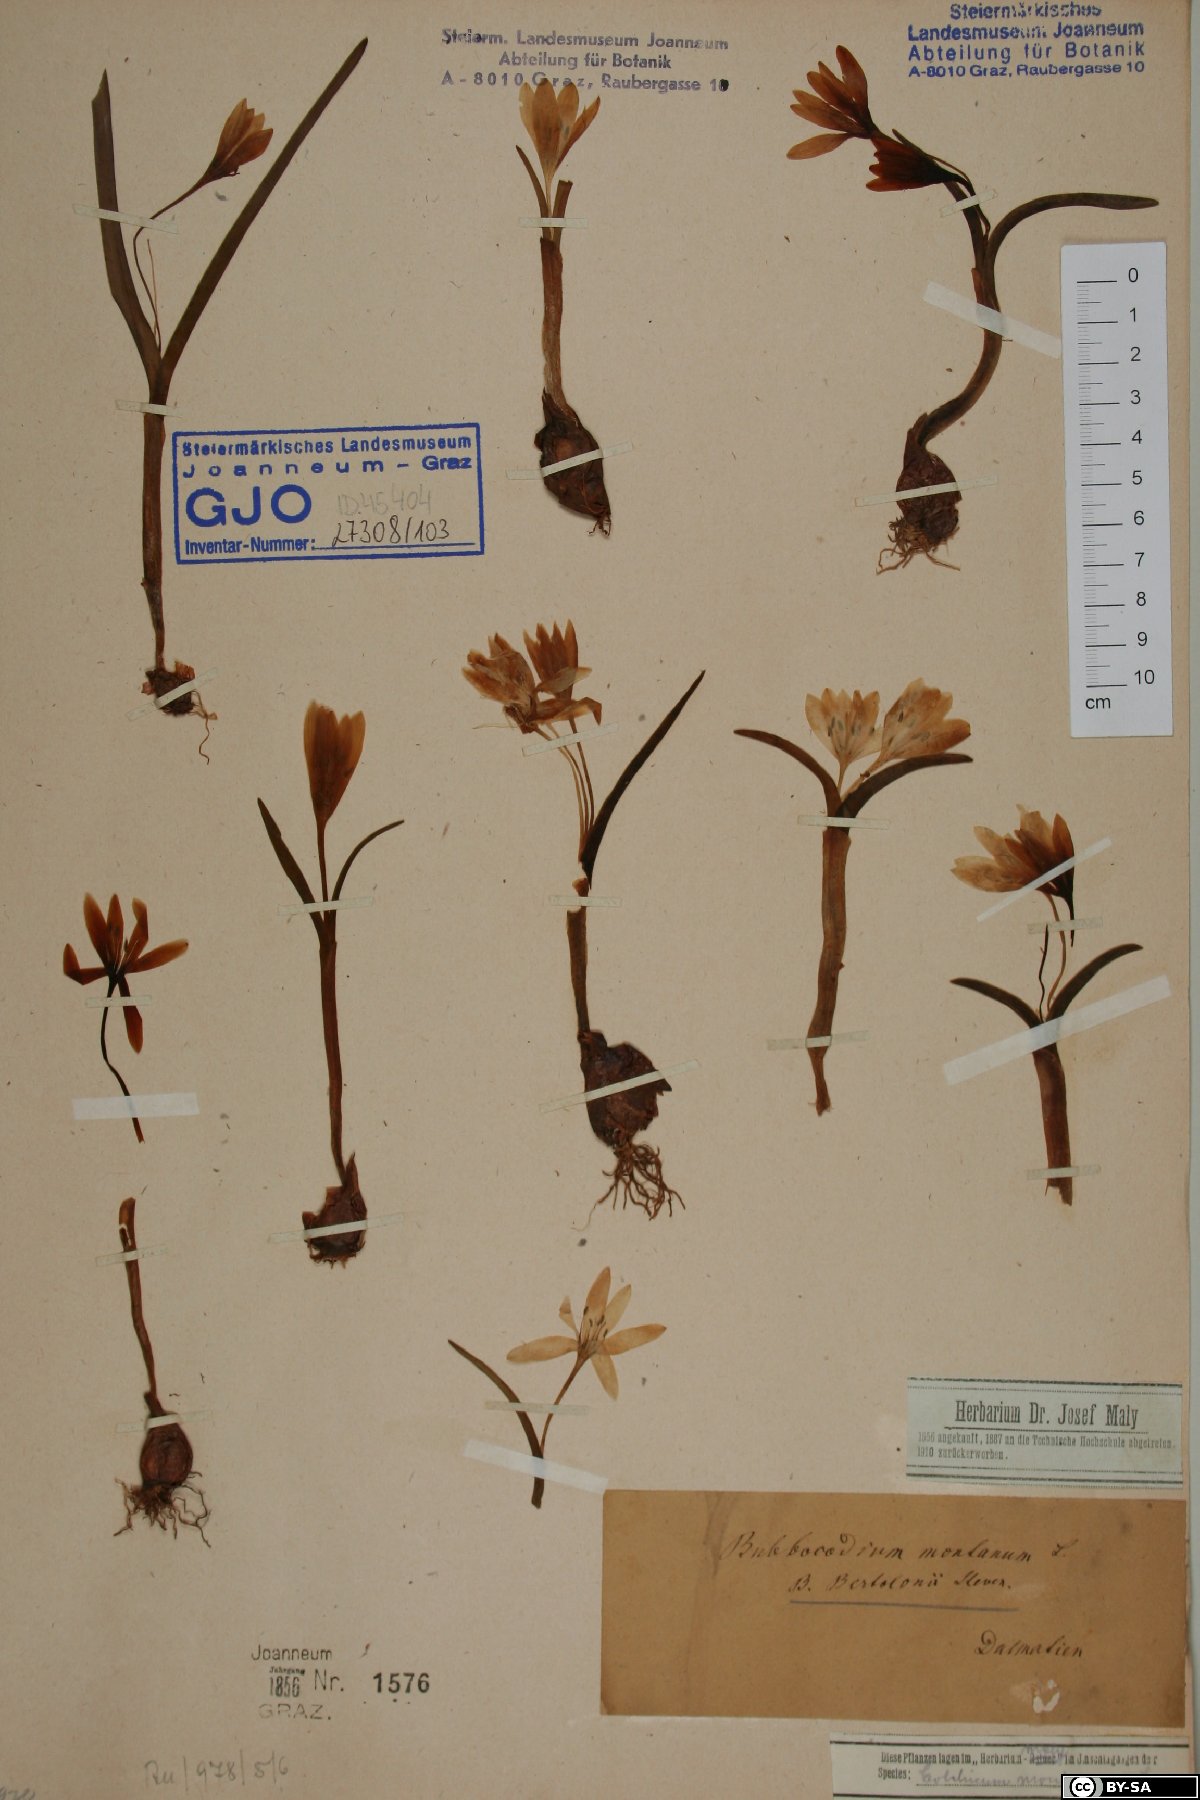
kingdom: Plantae
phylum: Tracheophyta
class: Liliopsida
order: Liliales
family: Colchicaceae
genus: Colchicum
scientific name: Colchicum hungaricum
